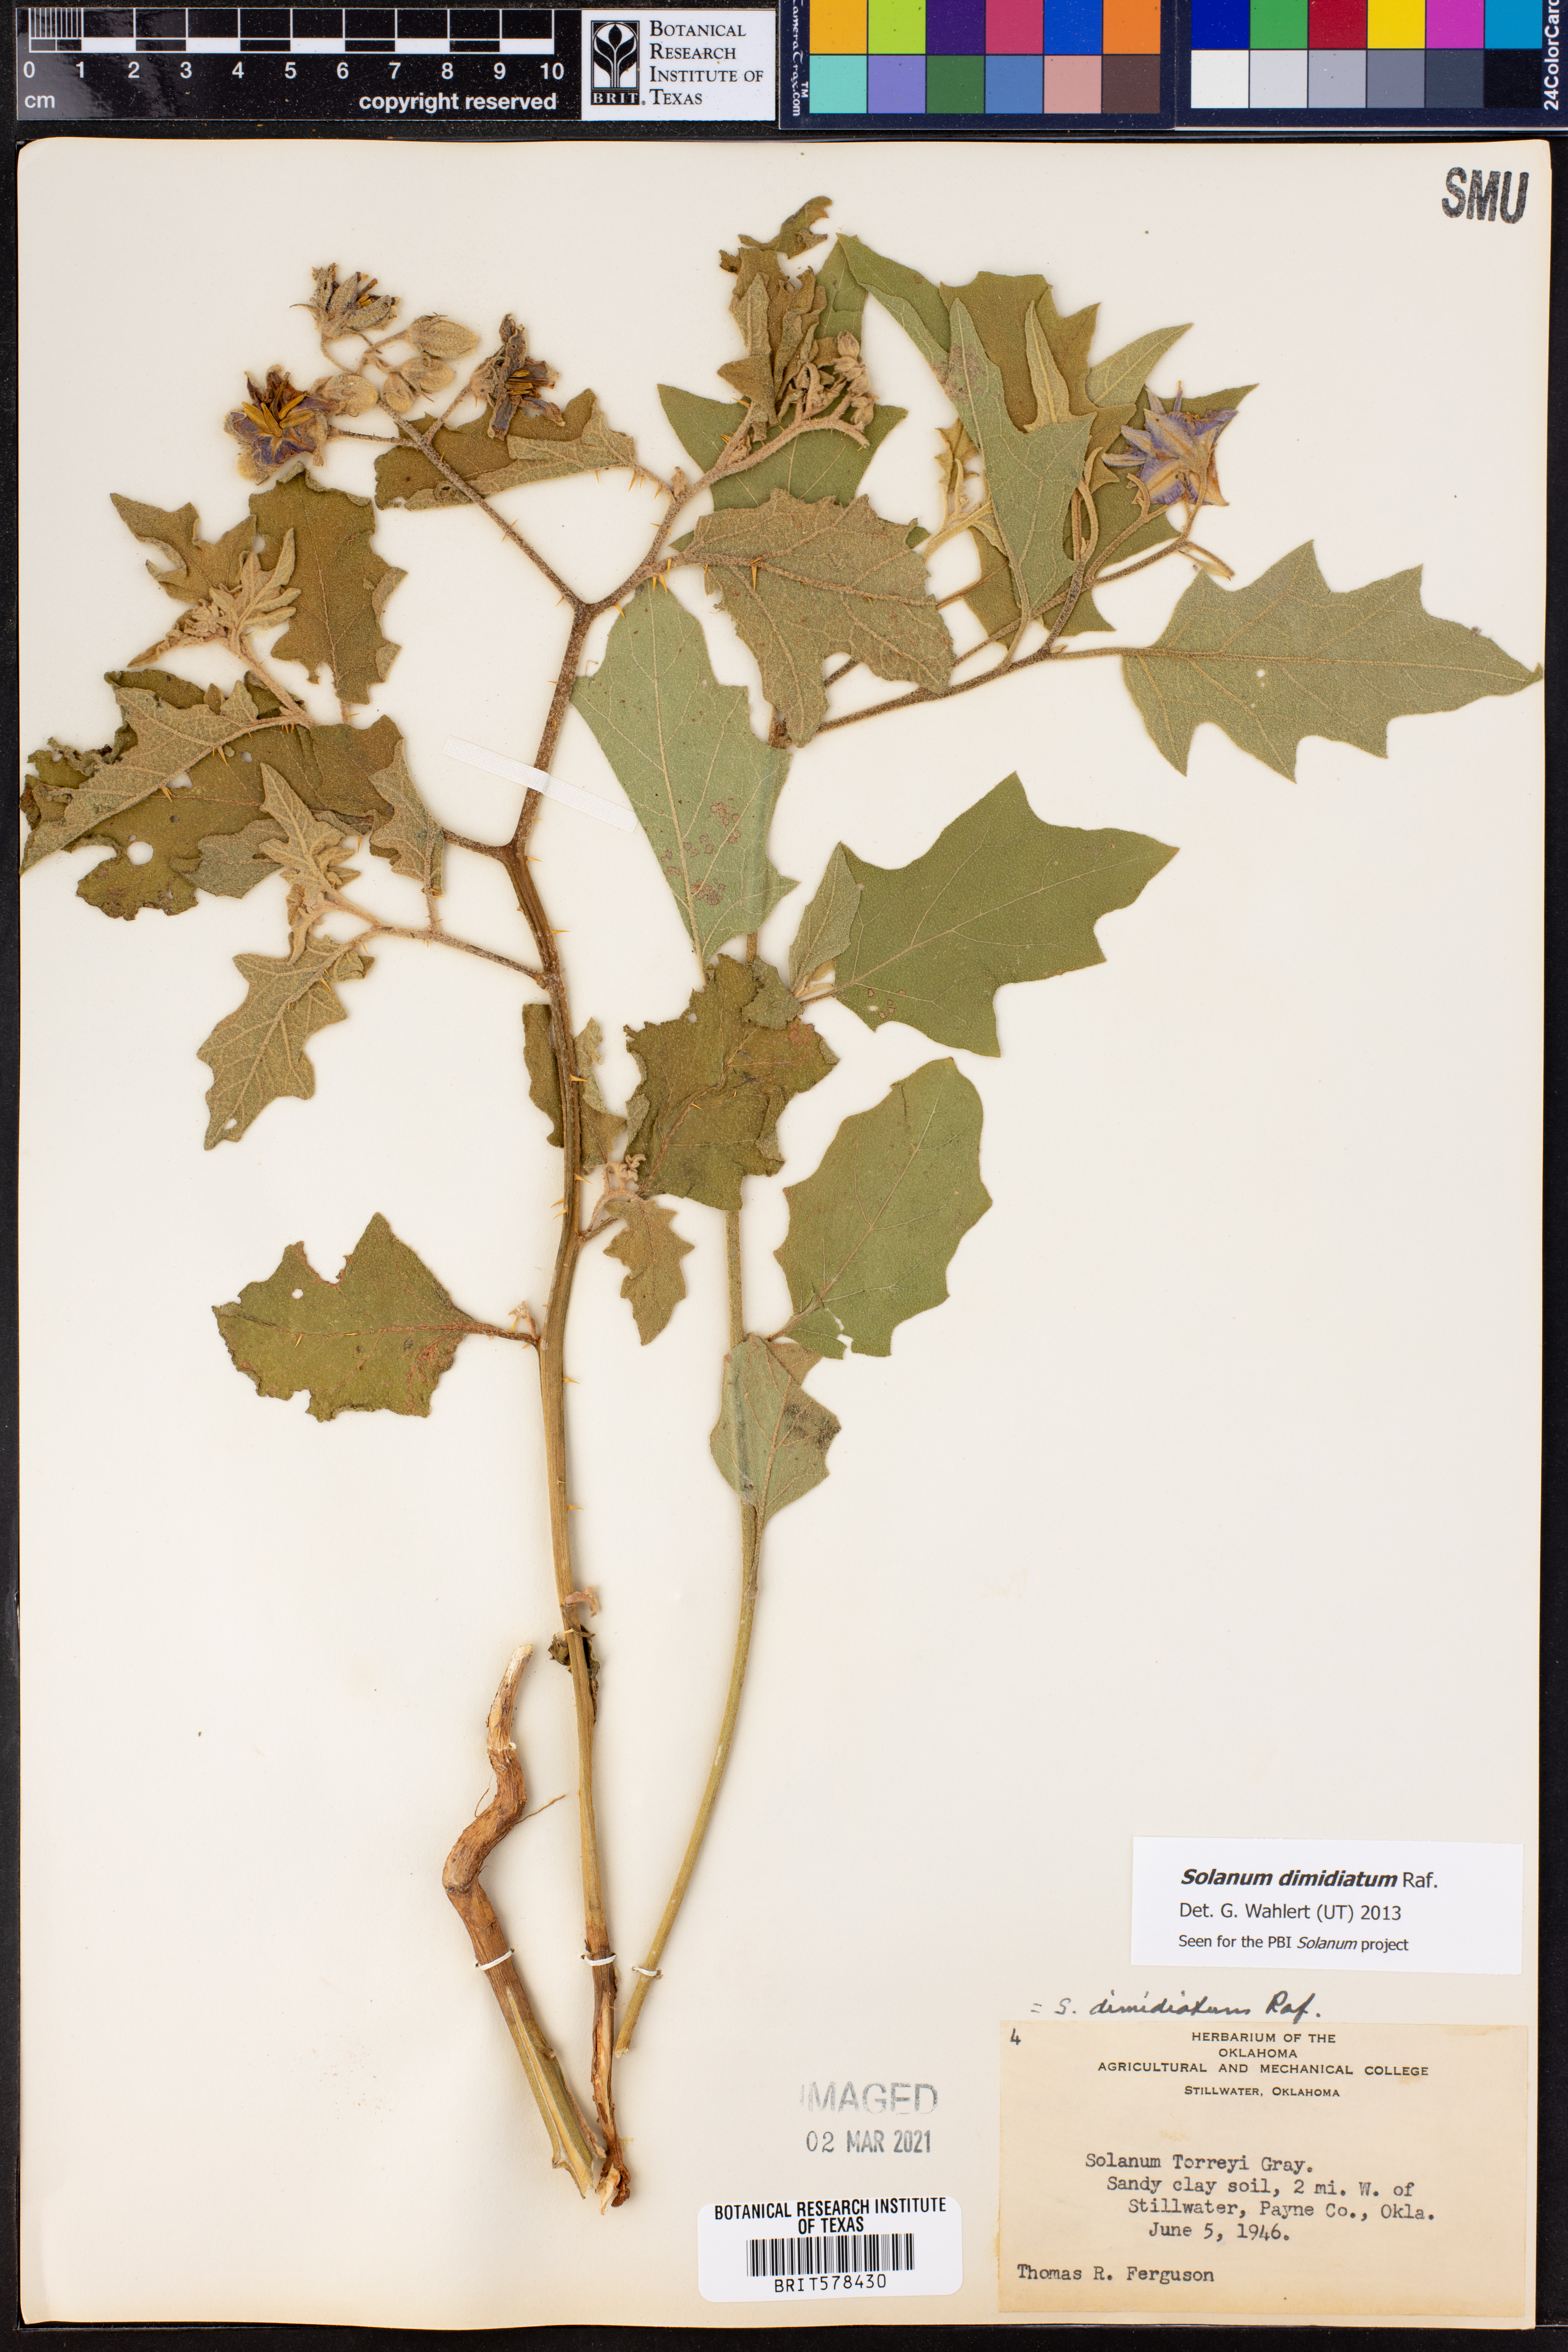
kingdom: Plantae
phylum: Tracheophyta
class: Magnoliopsida
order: Solanales
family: Solanaceae
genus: Solanum
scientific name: Solanum dimidiatum
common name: Carolina horse-nettle
